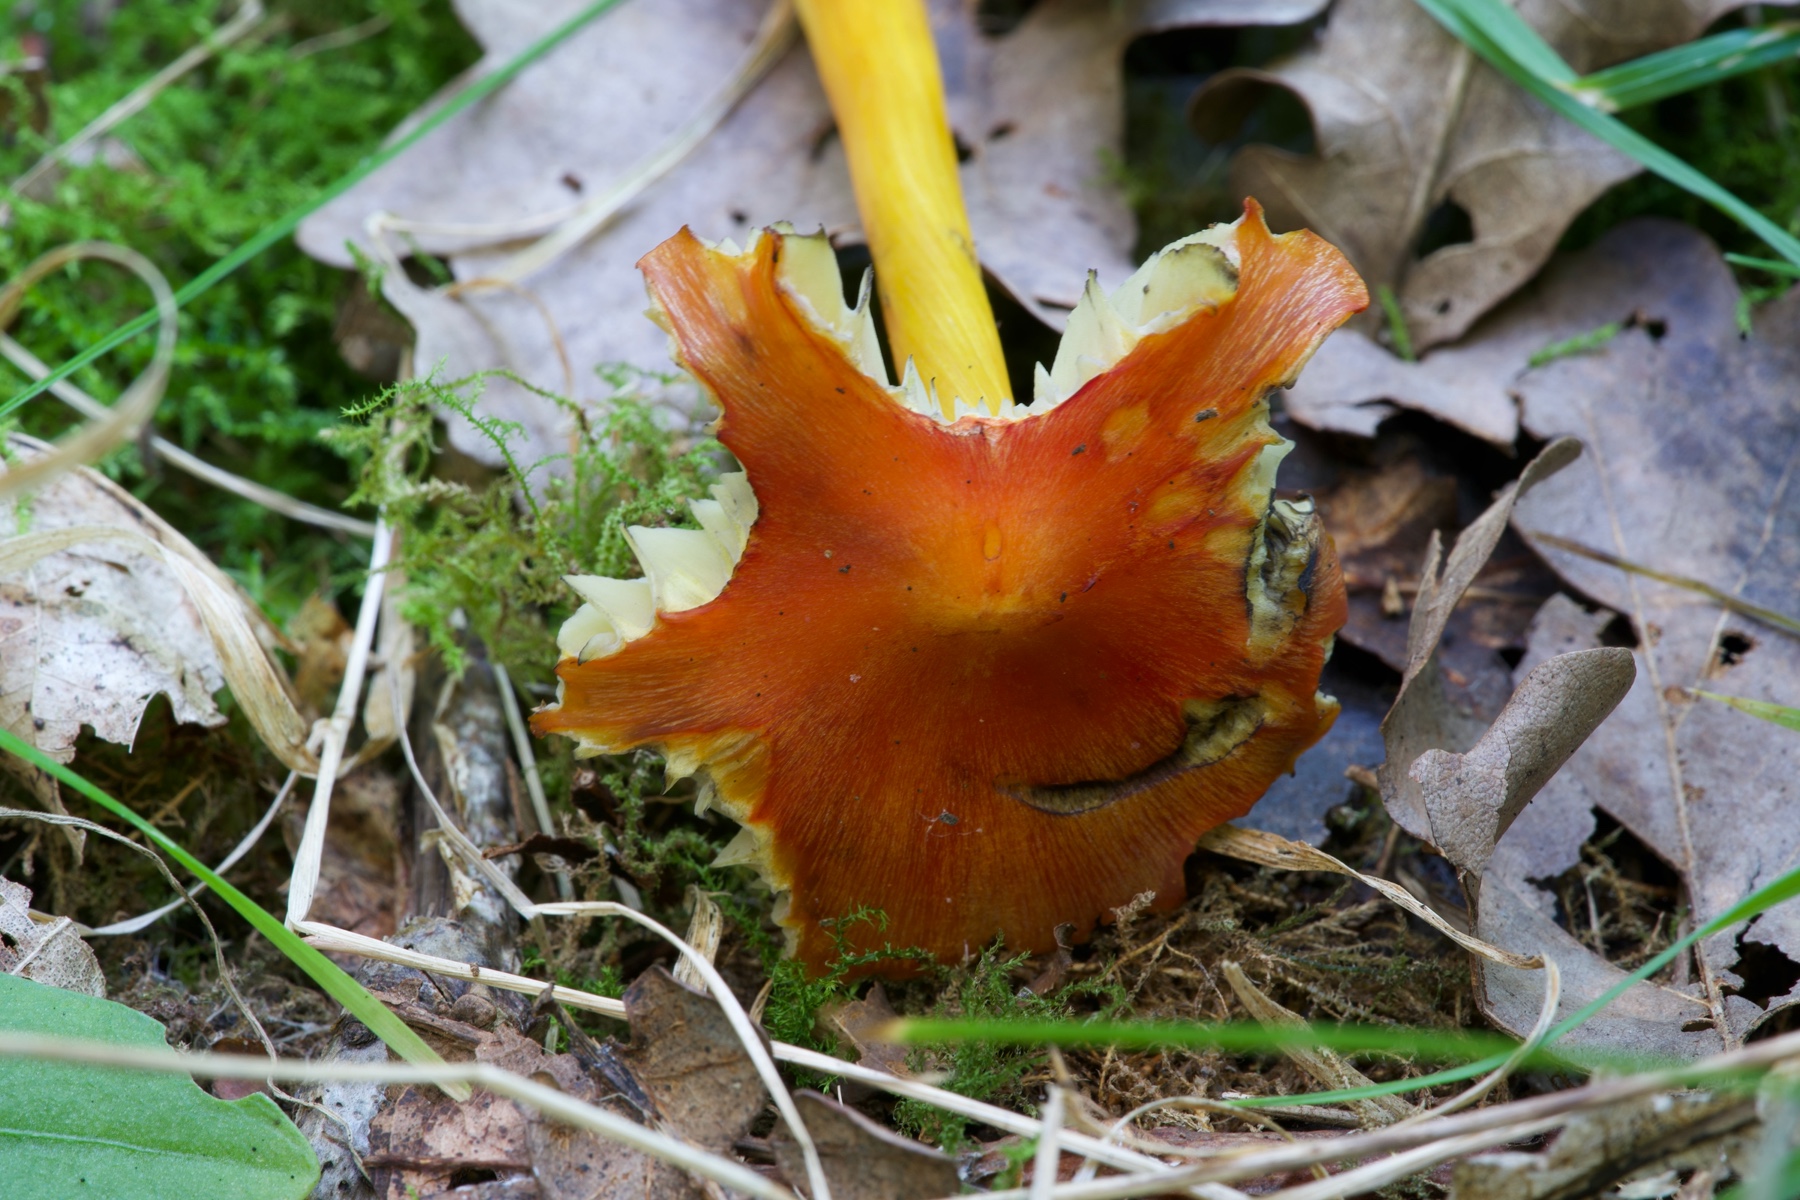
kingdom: Fungi
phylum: Basidiomycota
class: Agaricomycetes
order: Agaricales
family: Hygrophoraceae
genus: Hygrocybe
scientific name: Hygrocybe conica
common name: kegle-vokshat
